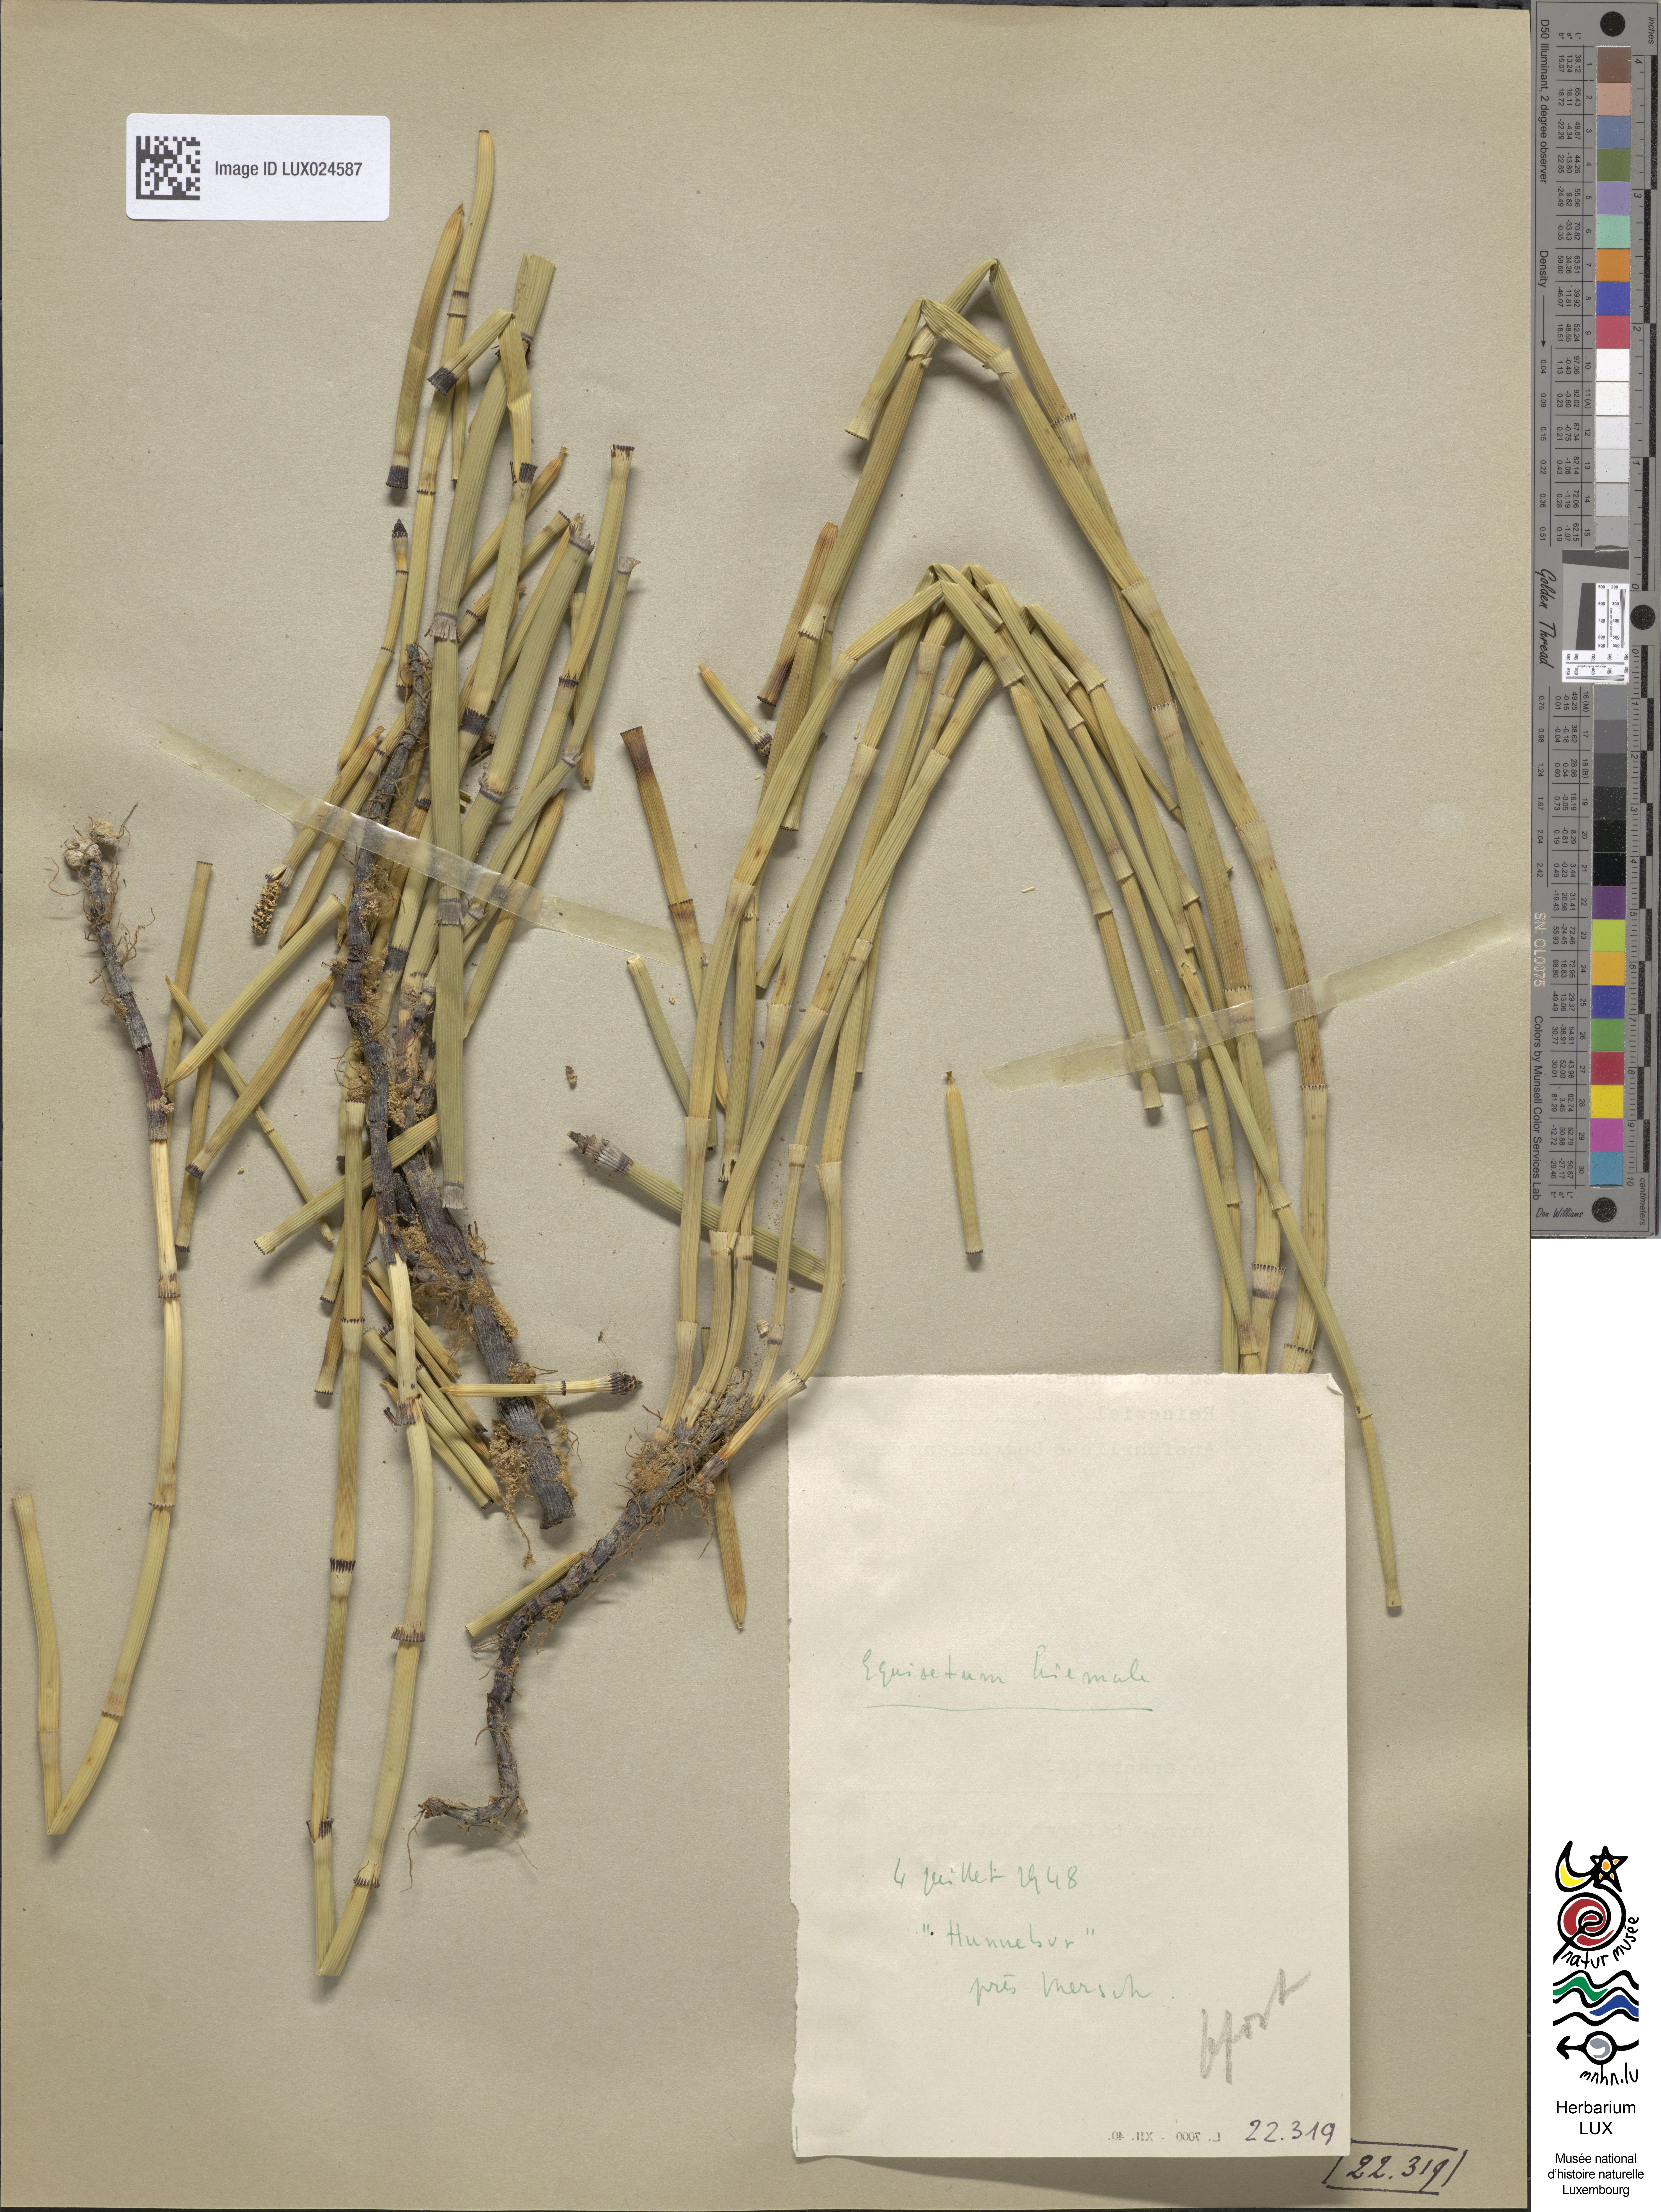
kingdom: Plantae
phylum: Tracheophyta
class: Polypodiopsida
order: Equisetales
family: Equisetaceae
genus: Equisetum
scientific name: Equisetum hyemale
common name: Rough horsetail
